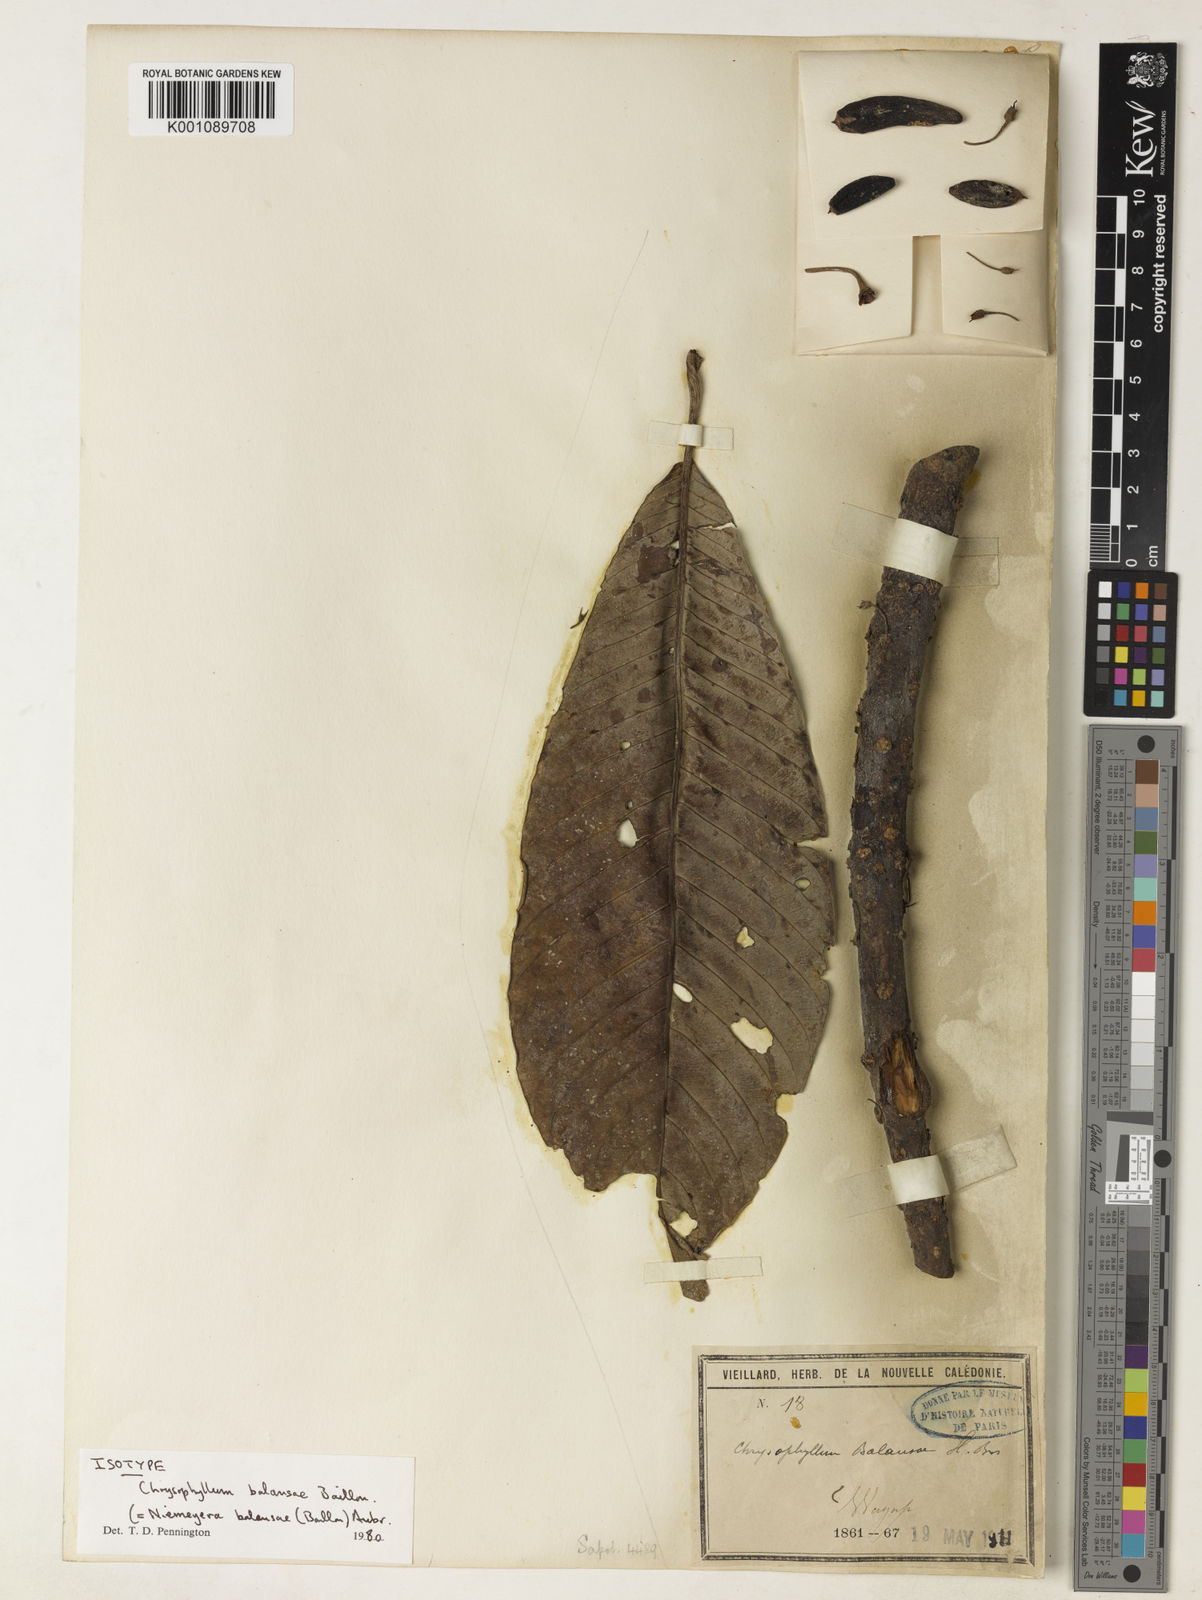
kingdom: Plantae
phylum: Tracheophyta
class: Magnoliopsida
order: Ericales
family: Sapotaceae
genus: Pycnandra
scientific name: Pycnandra balansae
